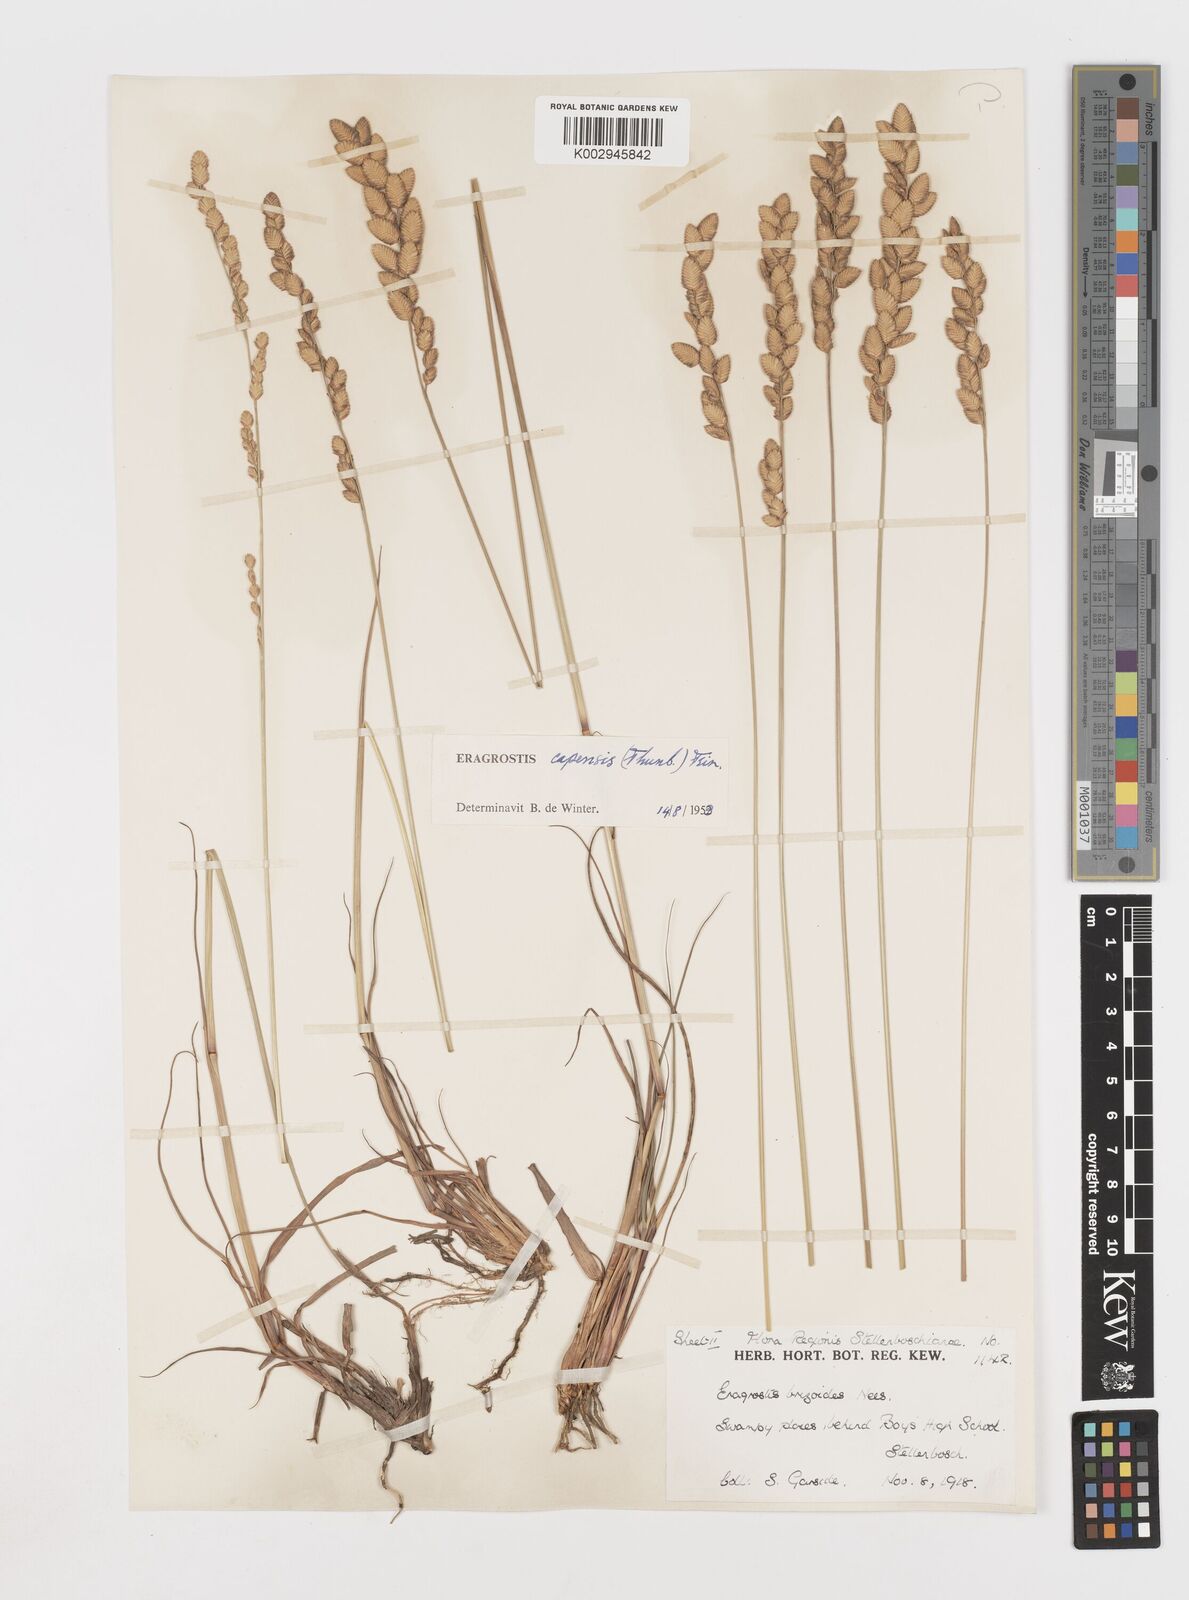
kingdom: Plantae
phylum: Tracheophyta
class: Liliopsida
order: Poales
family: Poaceae
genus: Eragrostis
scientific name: Eragrostis capensis
